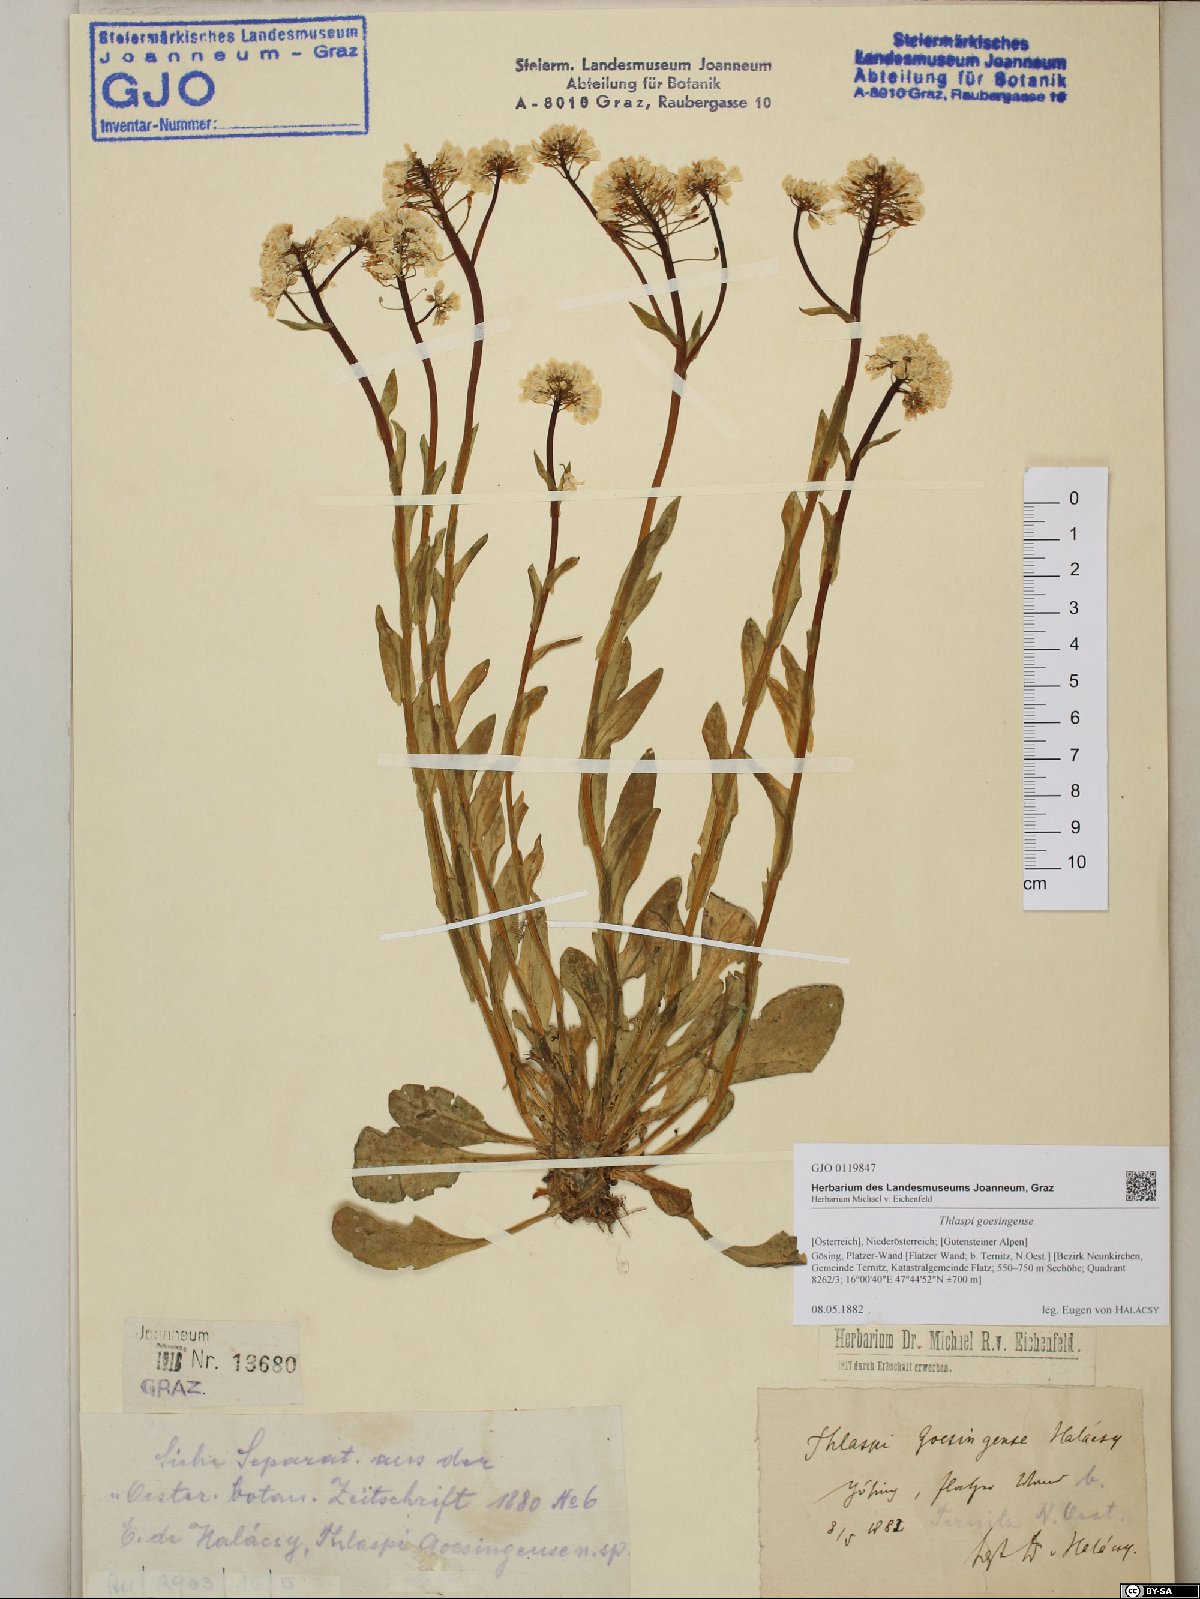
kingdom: Plantae
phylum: Tracheophyta
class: Magnoliopsida
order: Brassicales
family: Brassicaceae
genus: Noccaea
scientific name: Noccaea goesingensis
